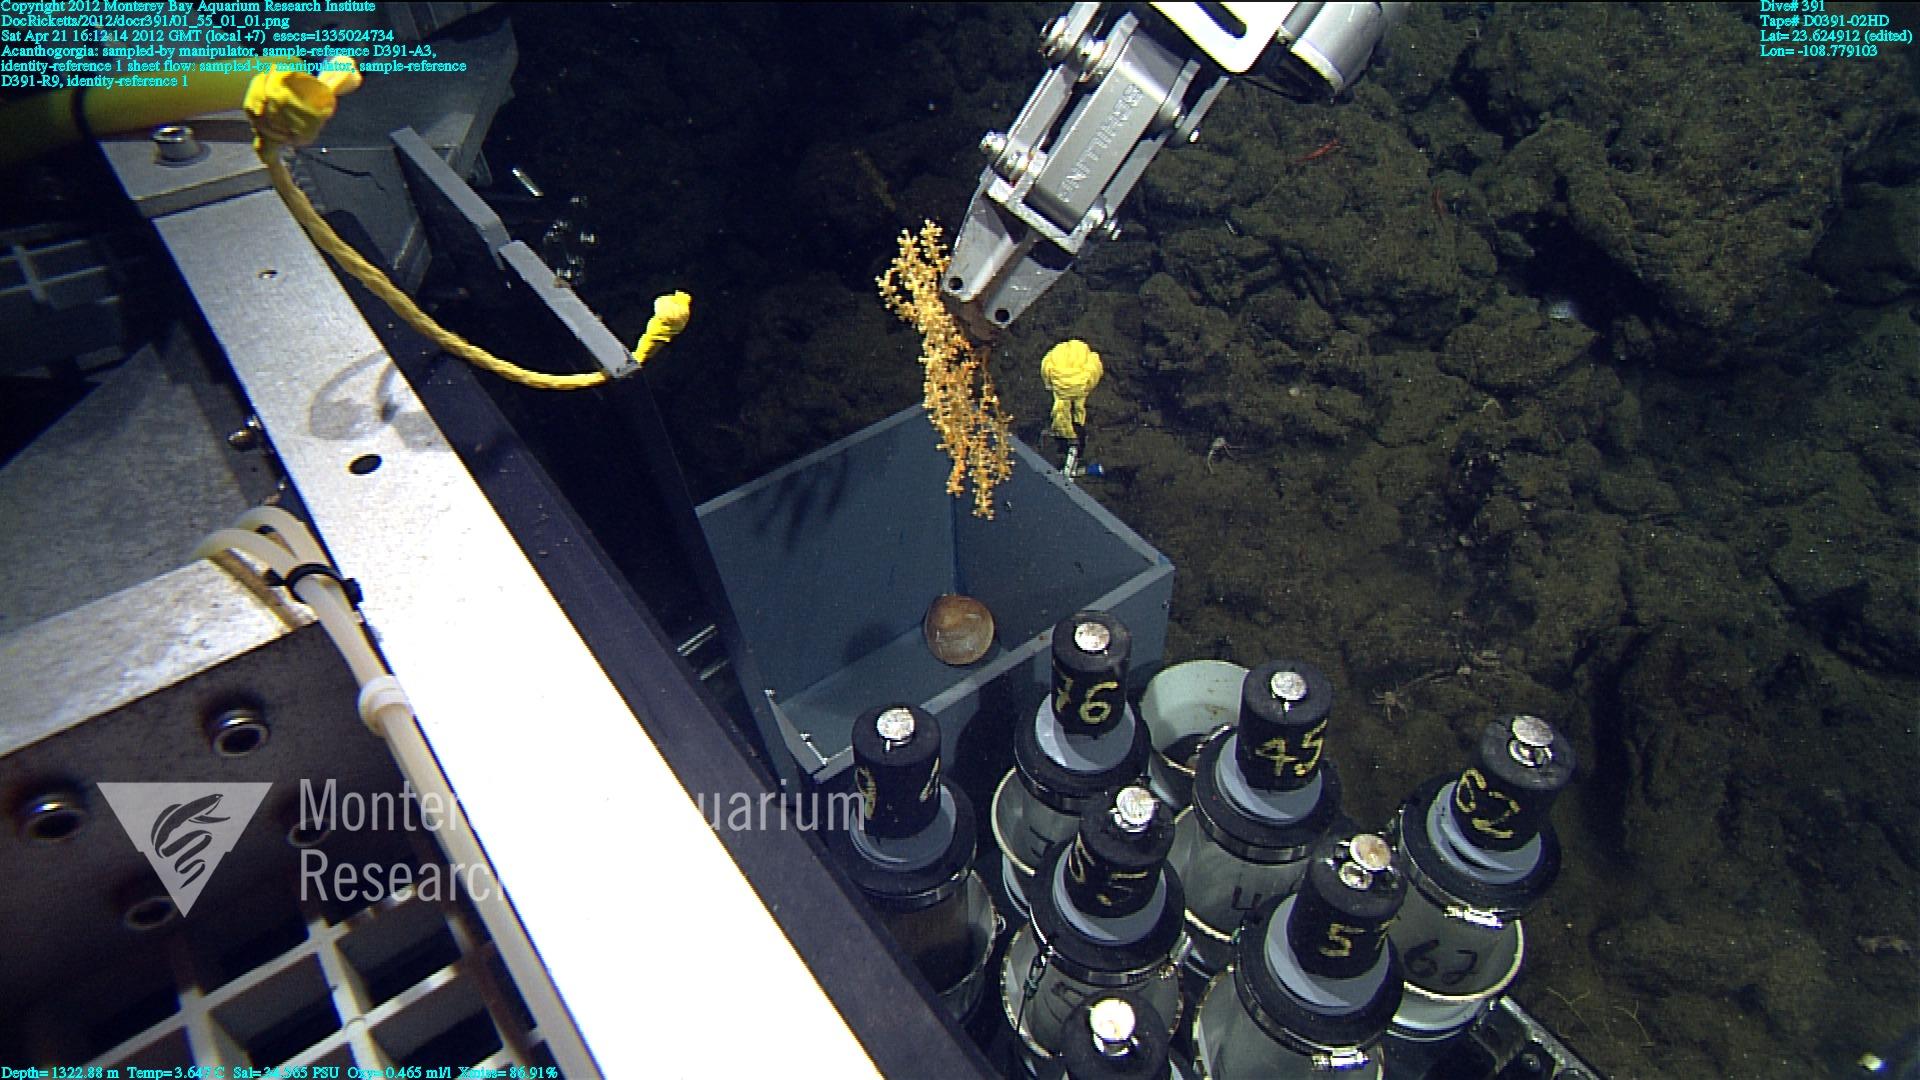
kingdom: Animalia
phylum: Cnidaria
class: Anthozoa
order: Malacalcyonacea
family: Paramuriceidae
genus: Acanthogorgia
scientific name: Acanthogorgia
